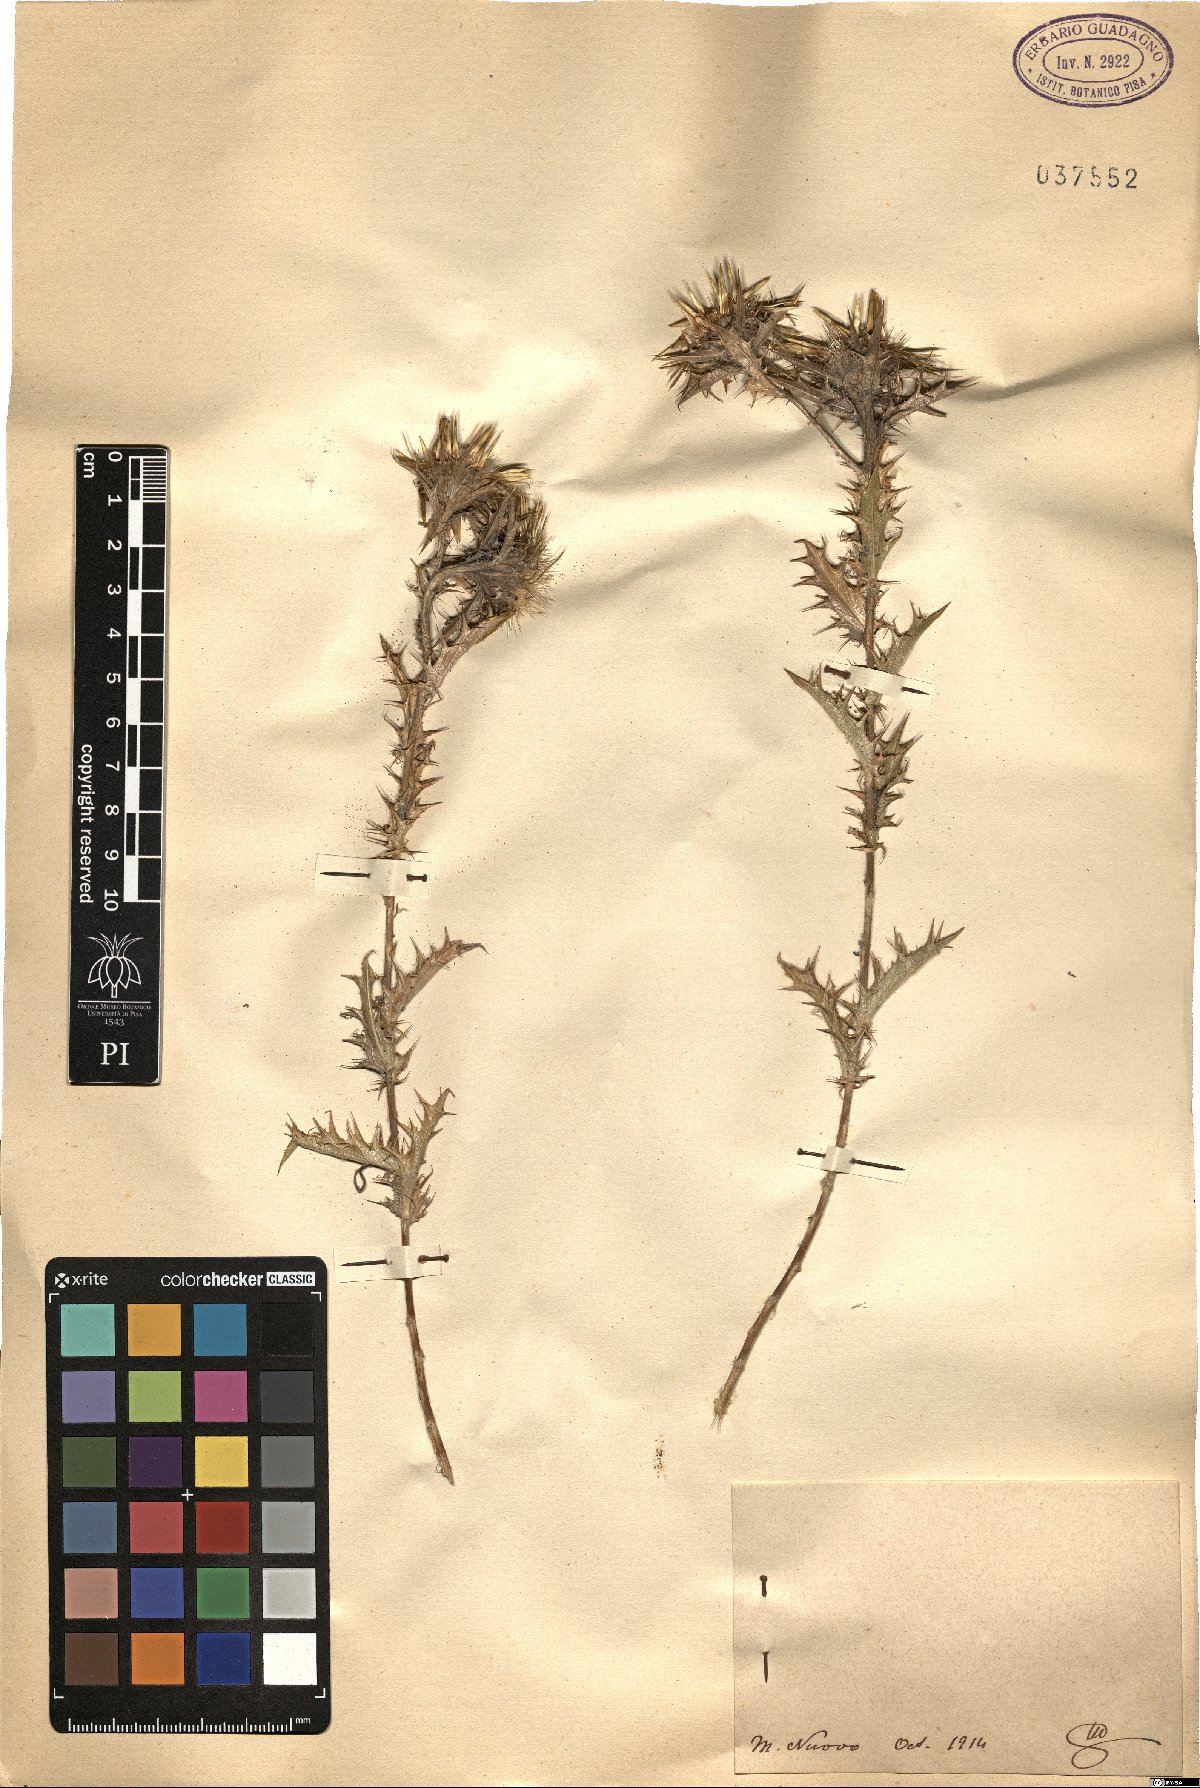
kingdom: Plantae
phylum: Tracheophyta
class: Magnoliopsida
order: Asterales
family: Asteraceae
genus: Carlina
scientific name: Carlina
